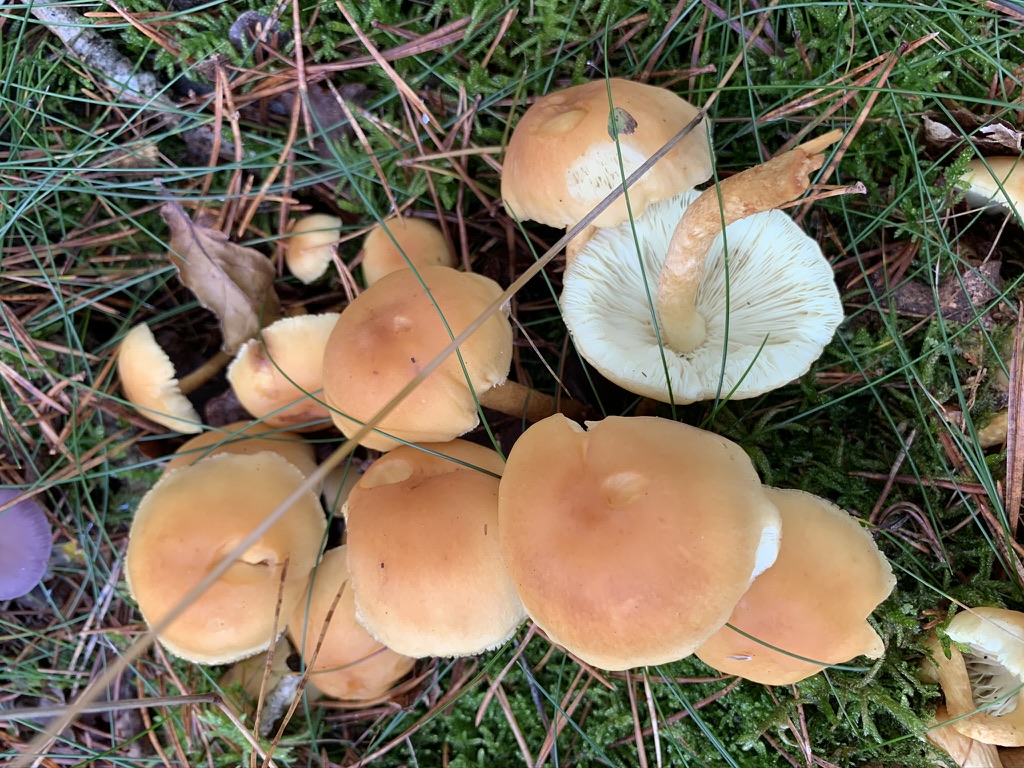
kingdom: Fungi
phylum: Basidiomycota
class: Agaricomycetes
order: Agaricales
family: Strophariaceae
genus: Hypholoma
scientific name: Hypholoma capnoides
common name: gran-svovlhat
